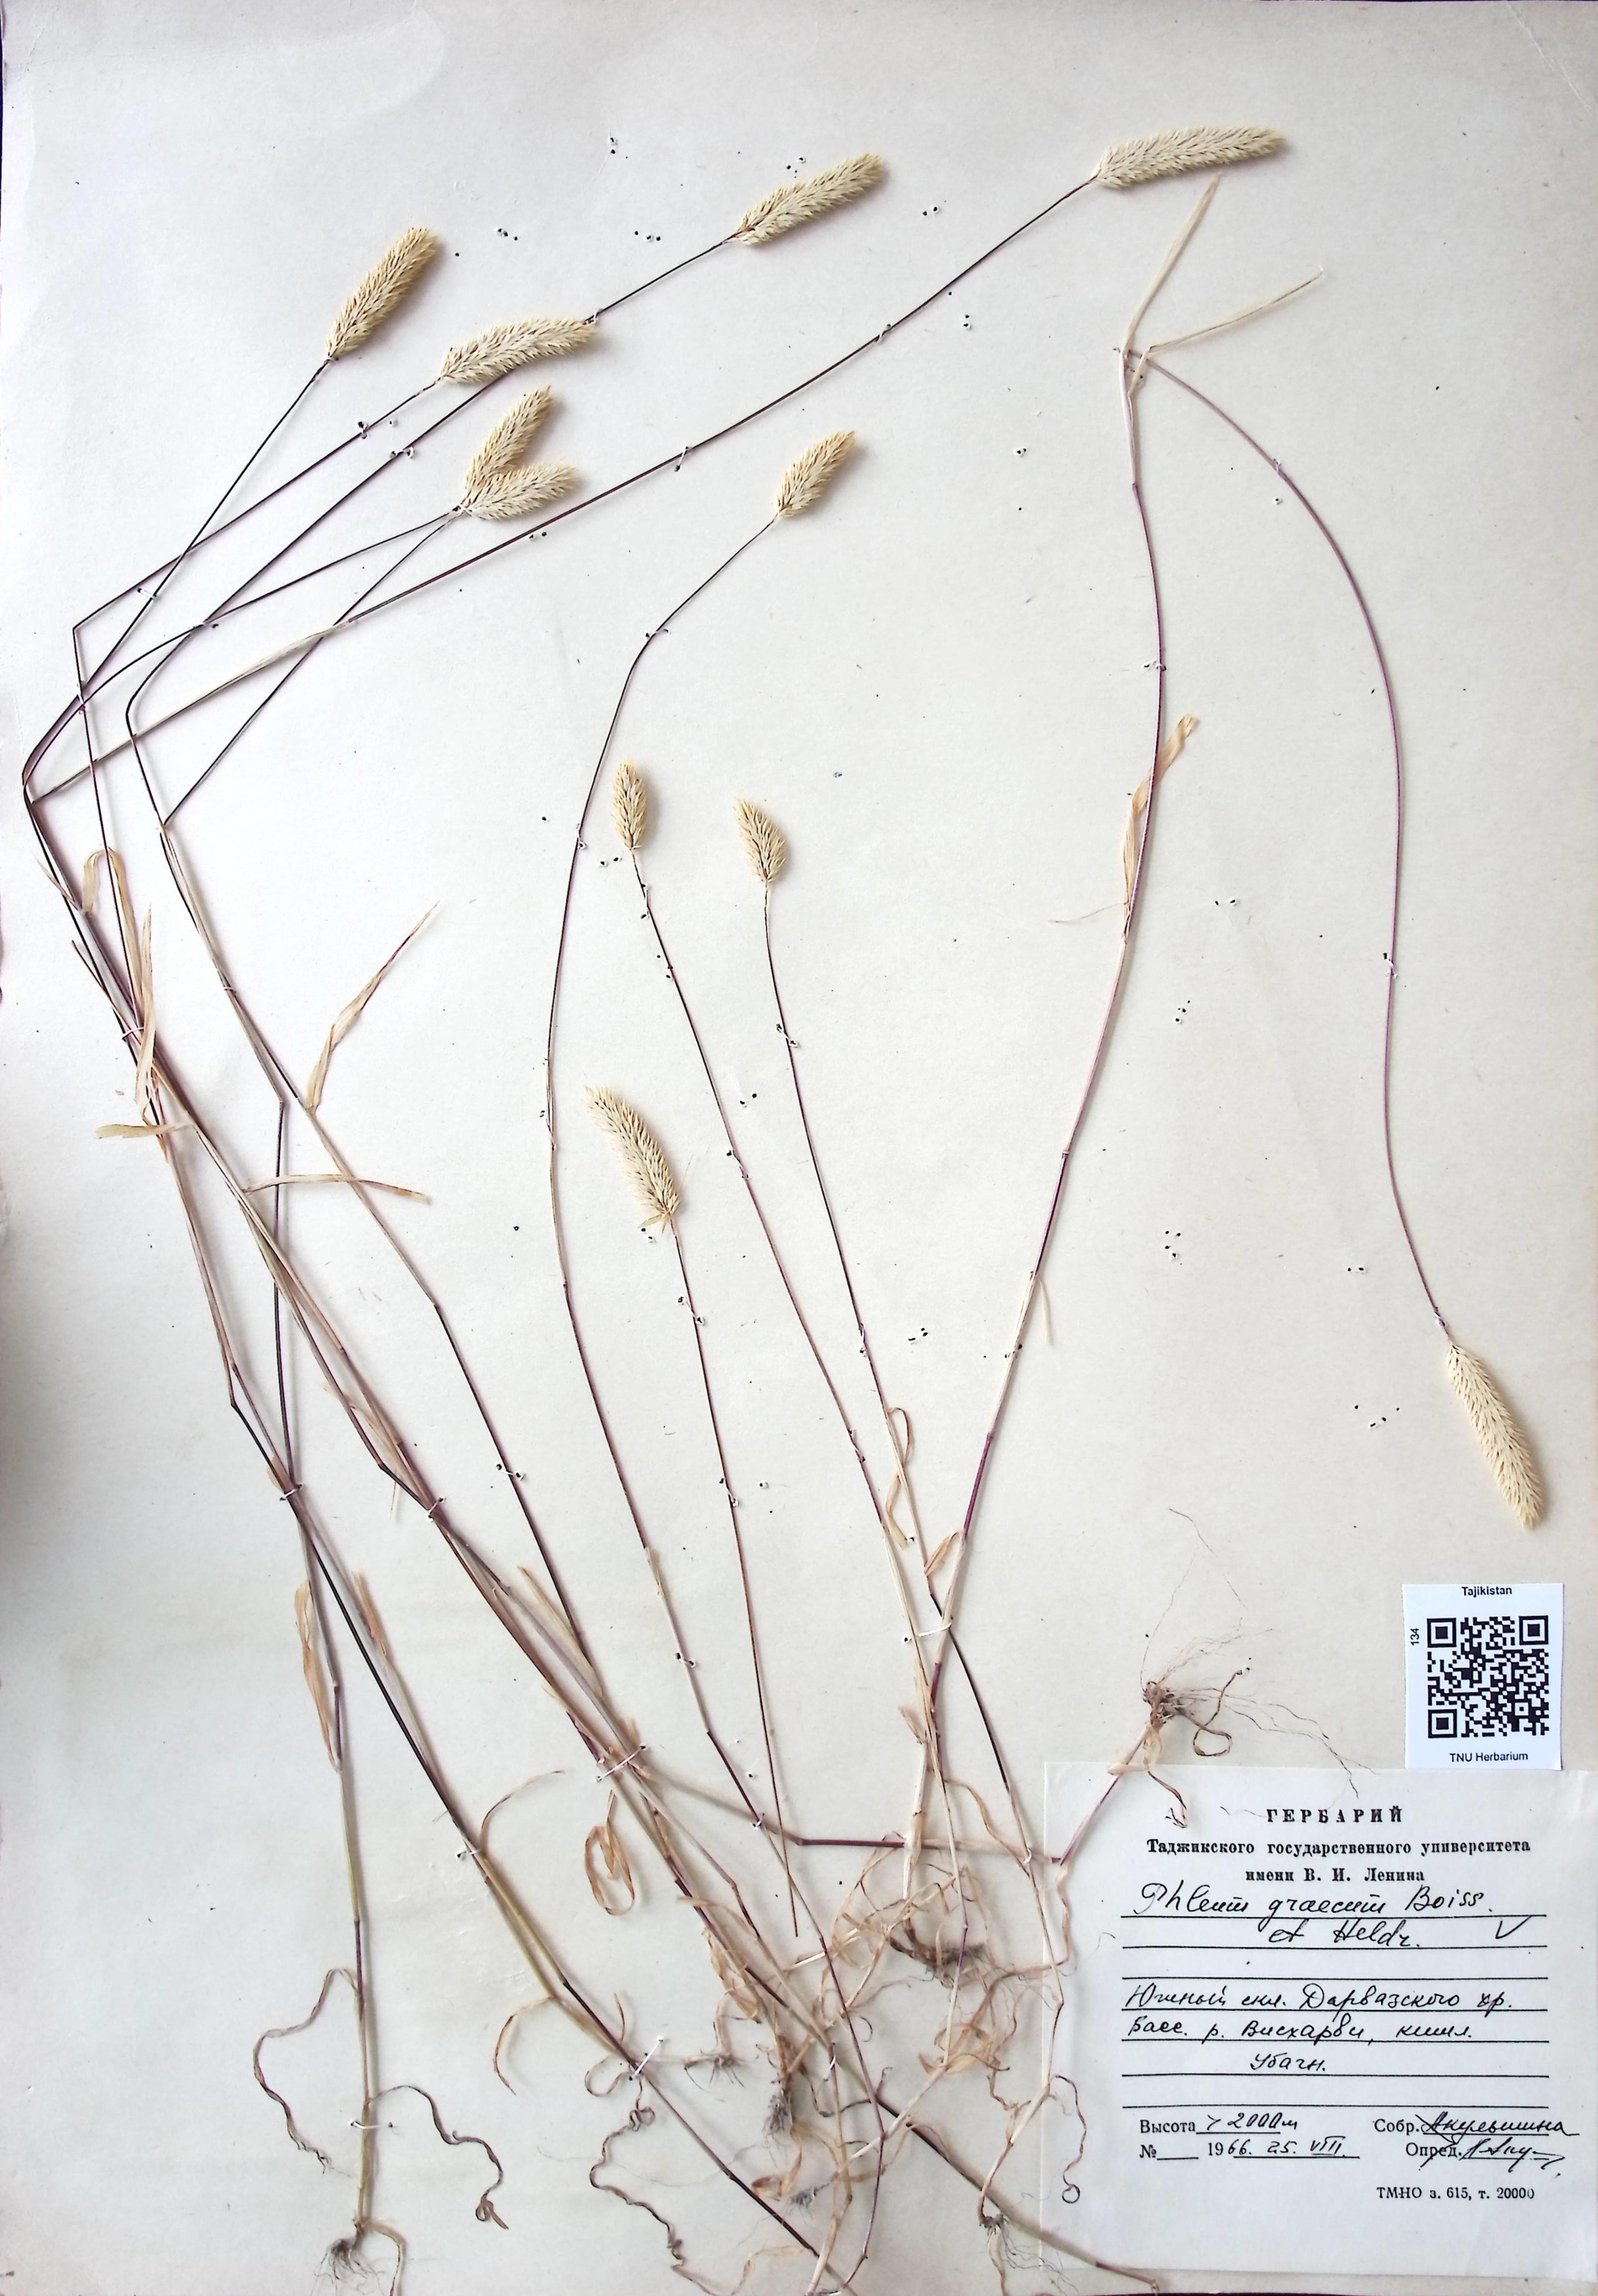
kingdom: Plantae
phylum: Tracheophyta
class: Liliopsida
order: Poales
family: Poaceae
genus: Phleum
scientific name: Phleum exaratum
